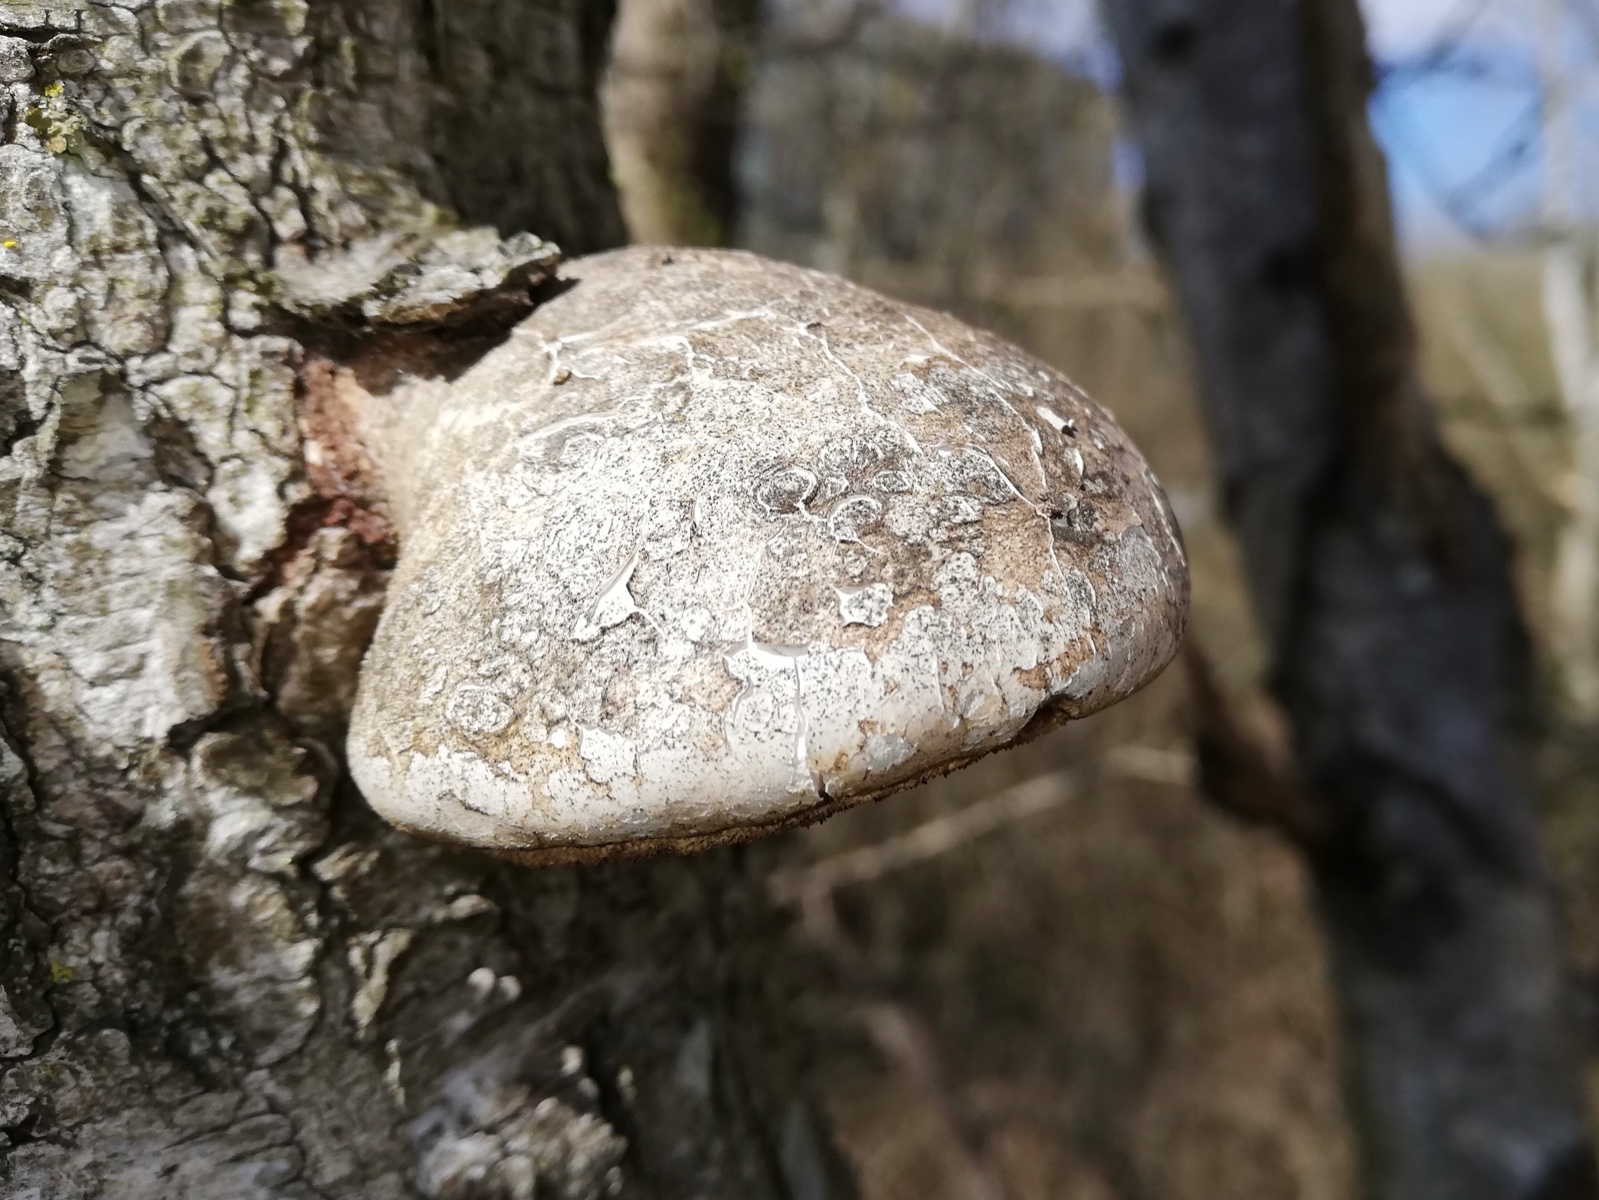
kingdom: Fungi
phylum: Basidiomycota
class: Agaricomycetes
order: Polyporales
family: Fomitopsidaceae
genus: Fomitopsis
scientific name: Fomitopsis betulina
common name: birkeporesvamp
